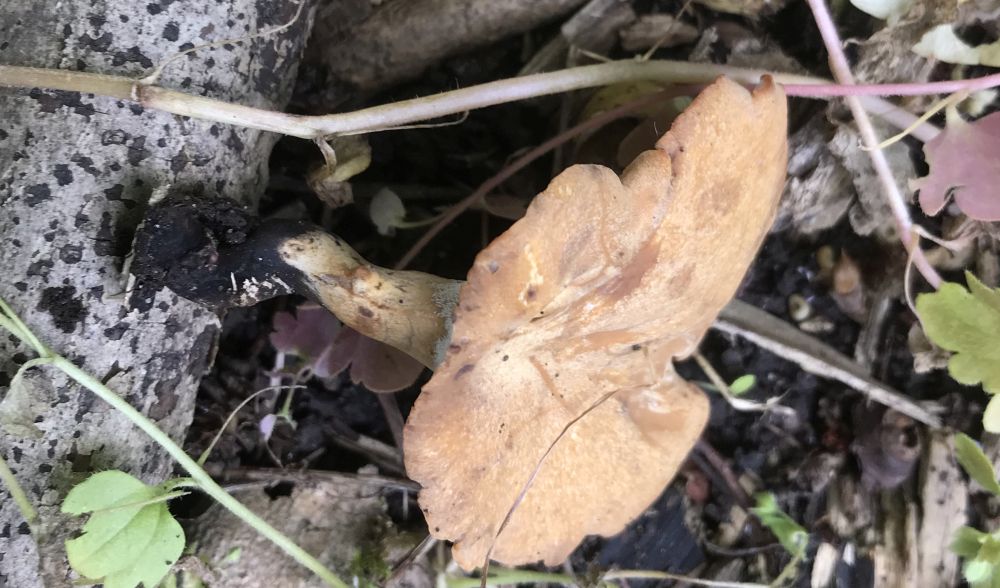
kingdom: Fungi
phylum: Basidiomycota
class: Agaricomycetes
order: Polyporales
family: Polyporaceae
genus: Cerioporus
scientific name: Cerioporus varius
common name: foranderlig stilkporesvamp
